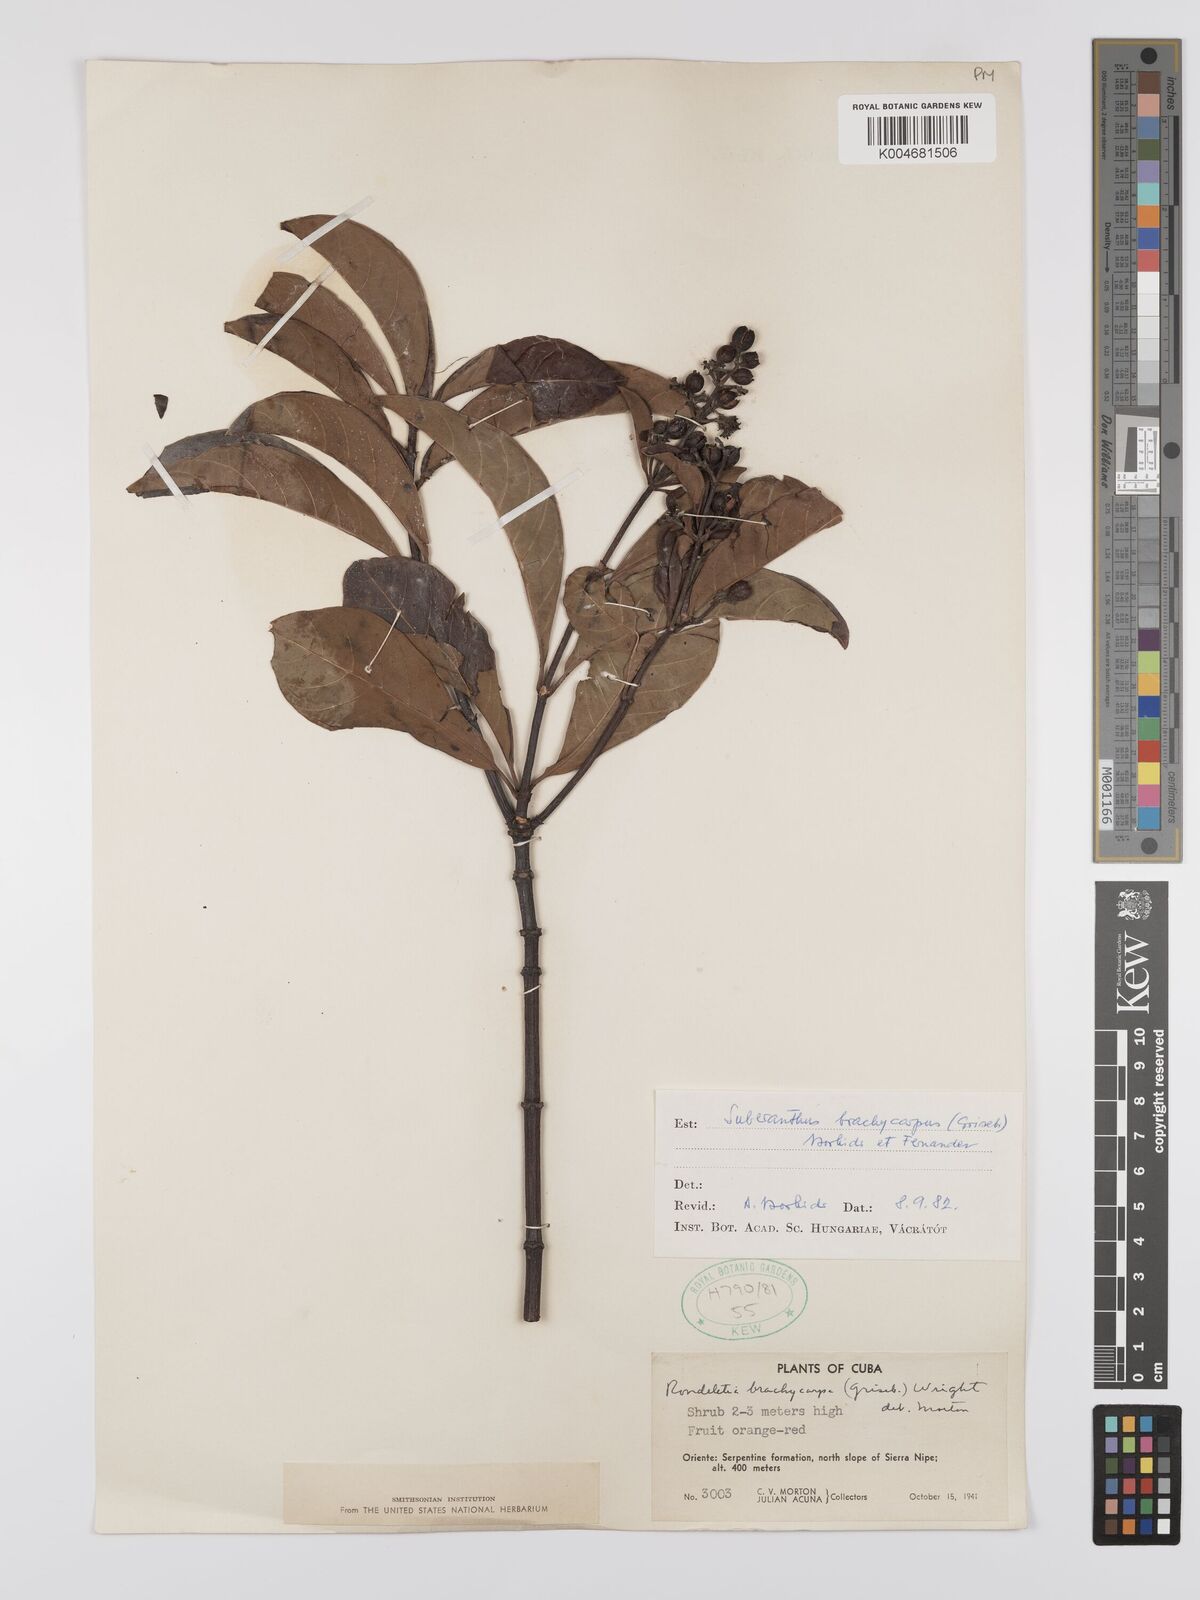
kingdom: Plantae
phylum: Tracheophyta
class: Magnoliopsida
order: Gentianales
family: Rubiaceae
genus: Suberanthus
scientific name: Suberanthus brachycarpus
